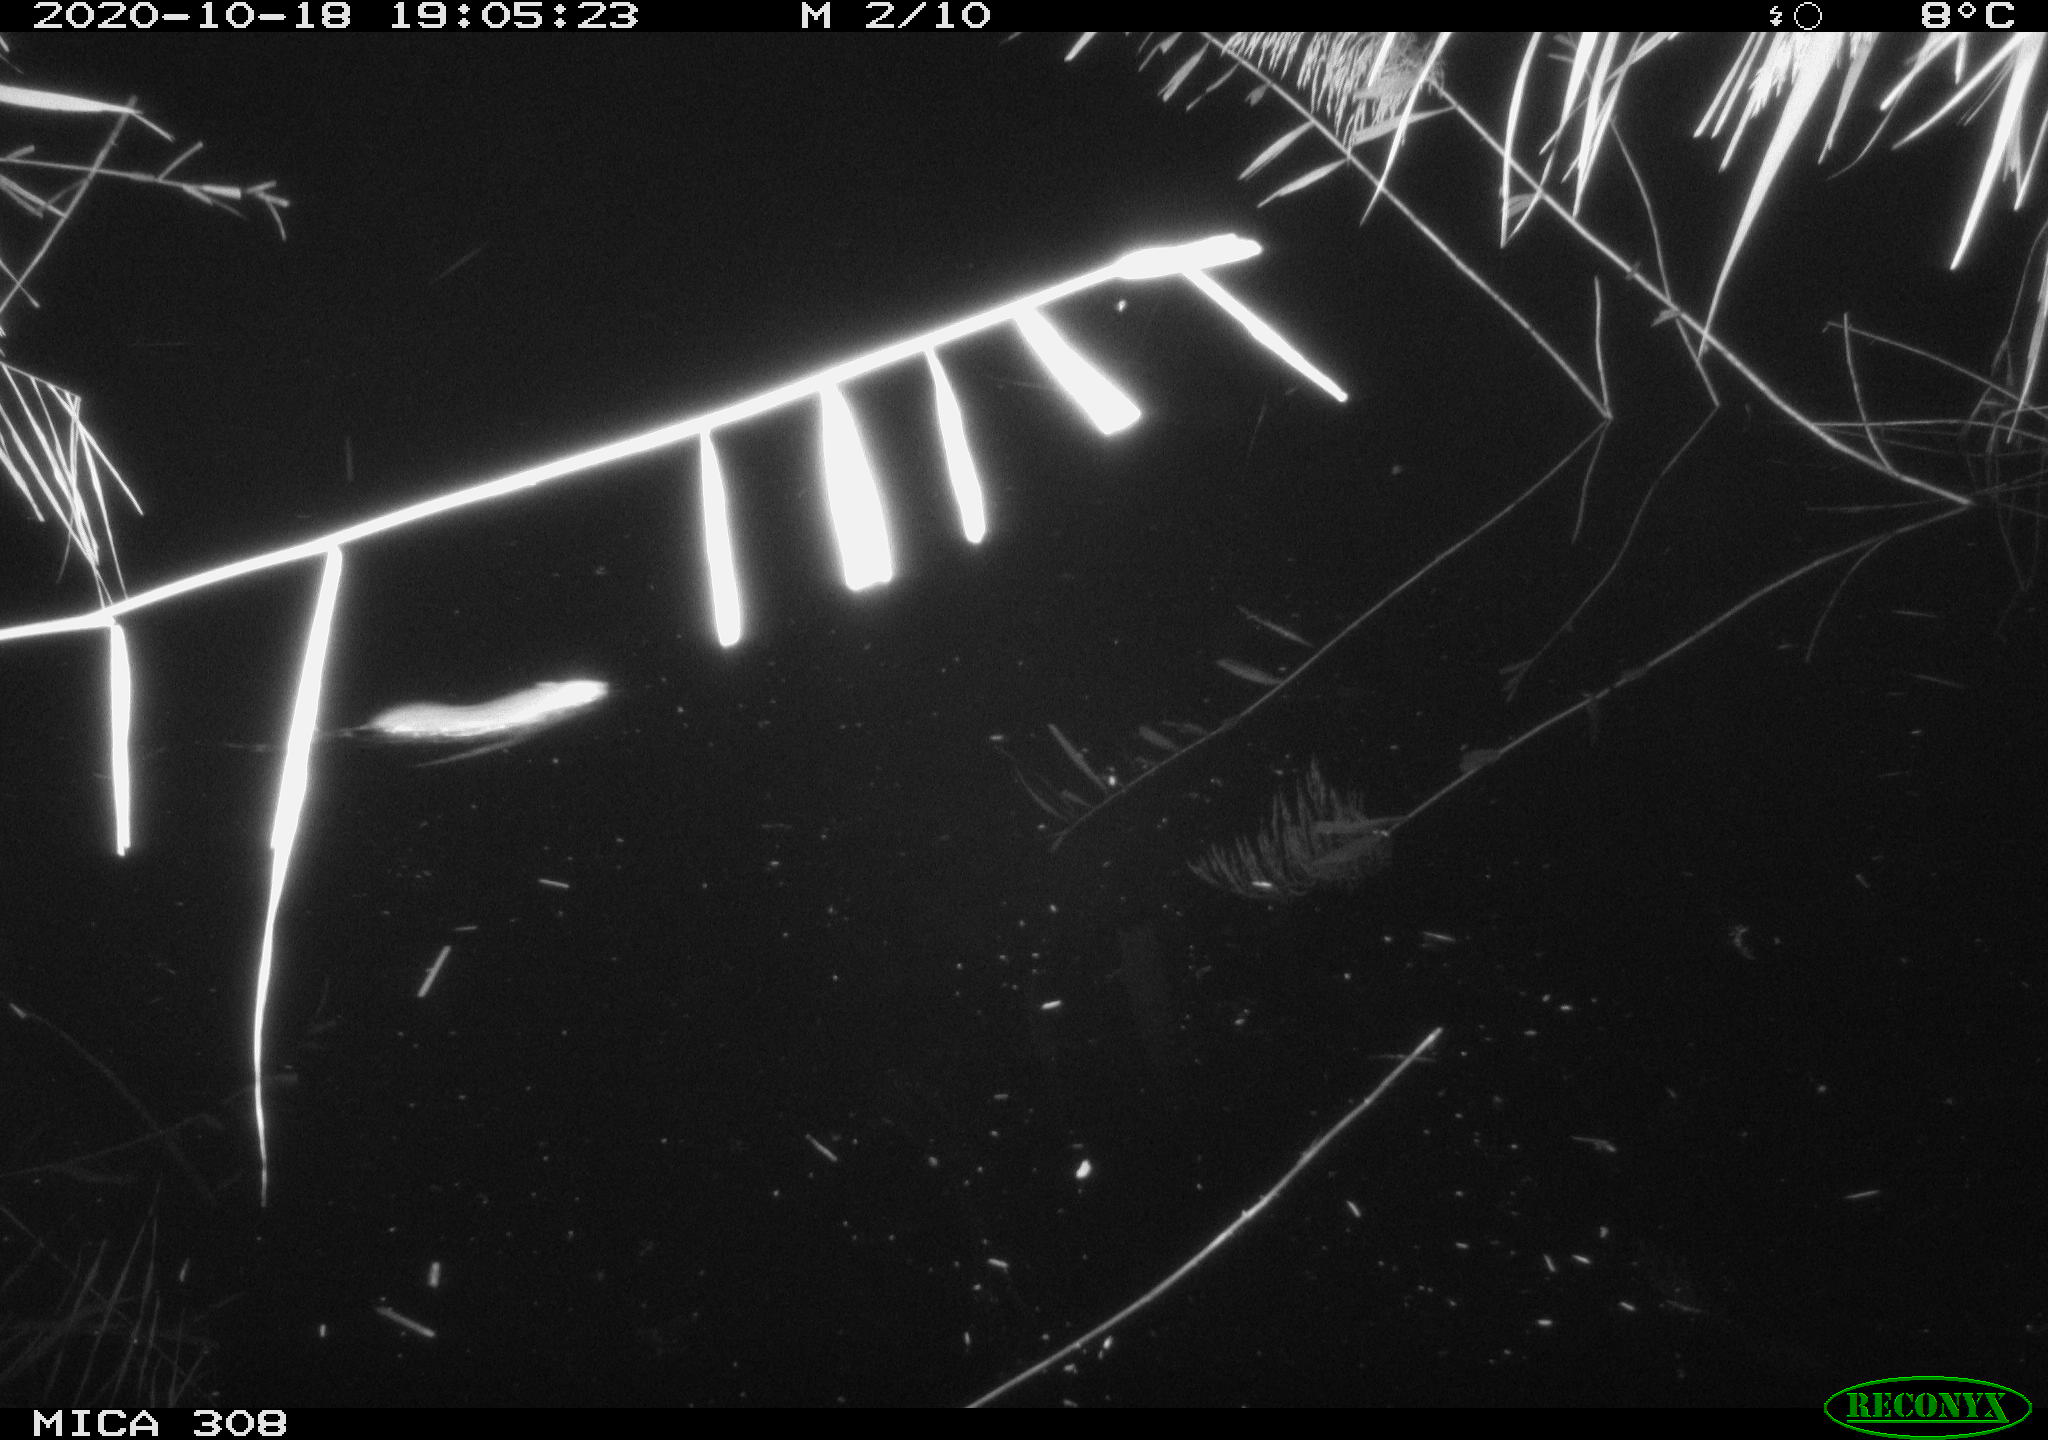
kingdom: Animalia
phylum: Chordata
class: Mammalia
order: Rodentia
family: Muridae
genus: Rattus
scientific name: Rattus norvegicus
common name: Brown rat
